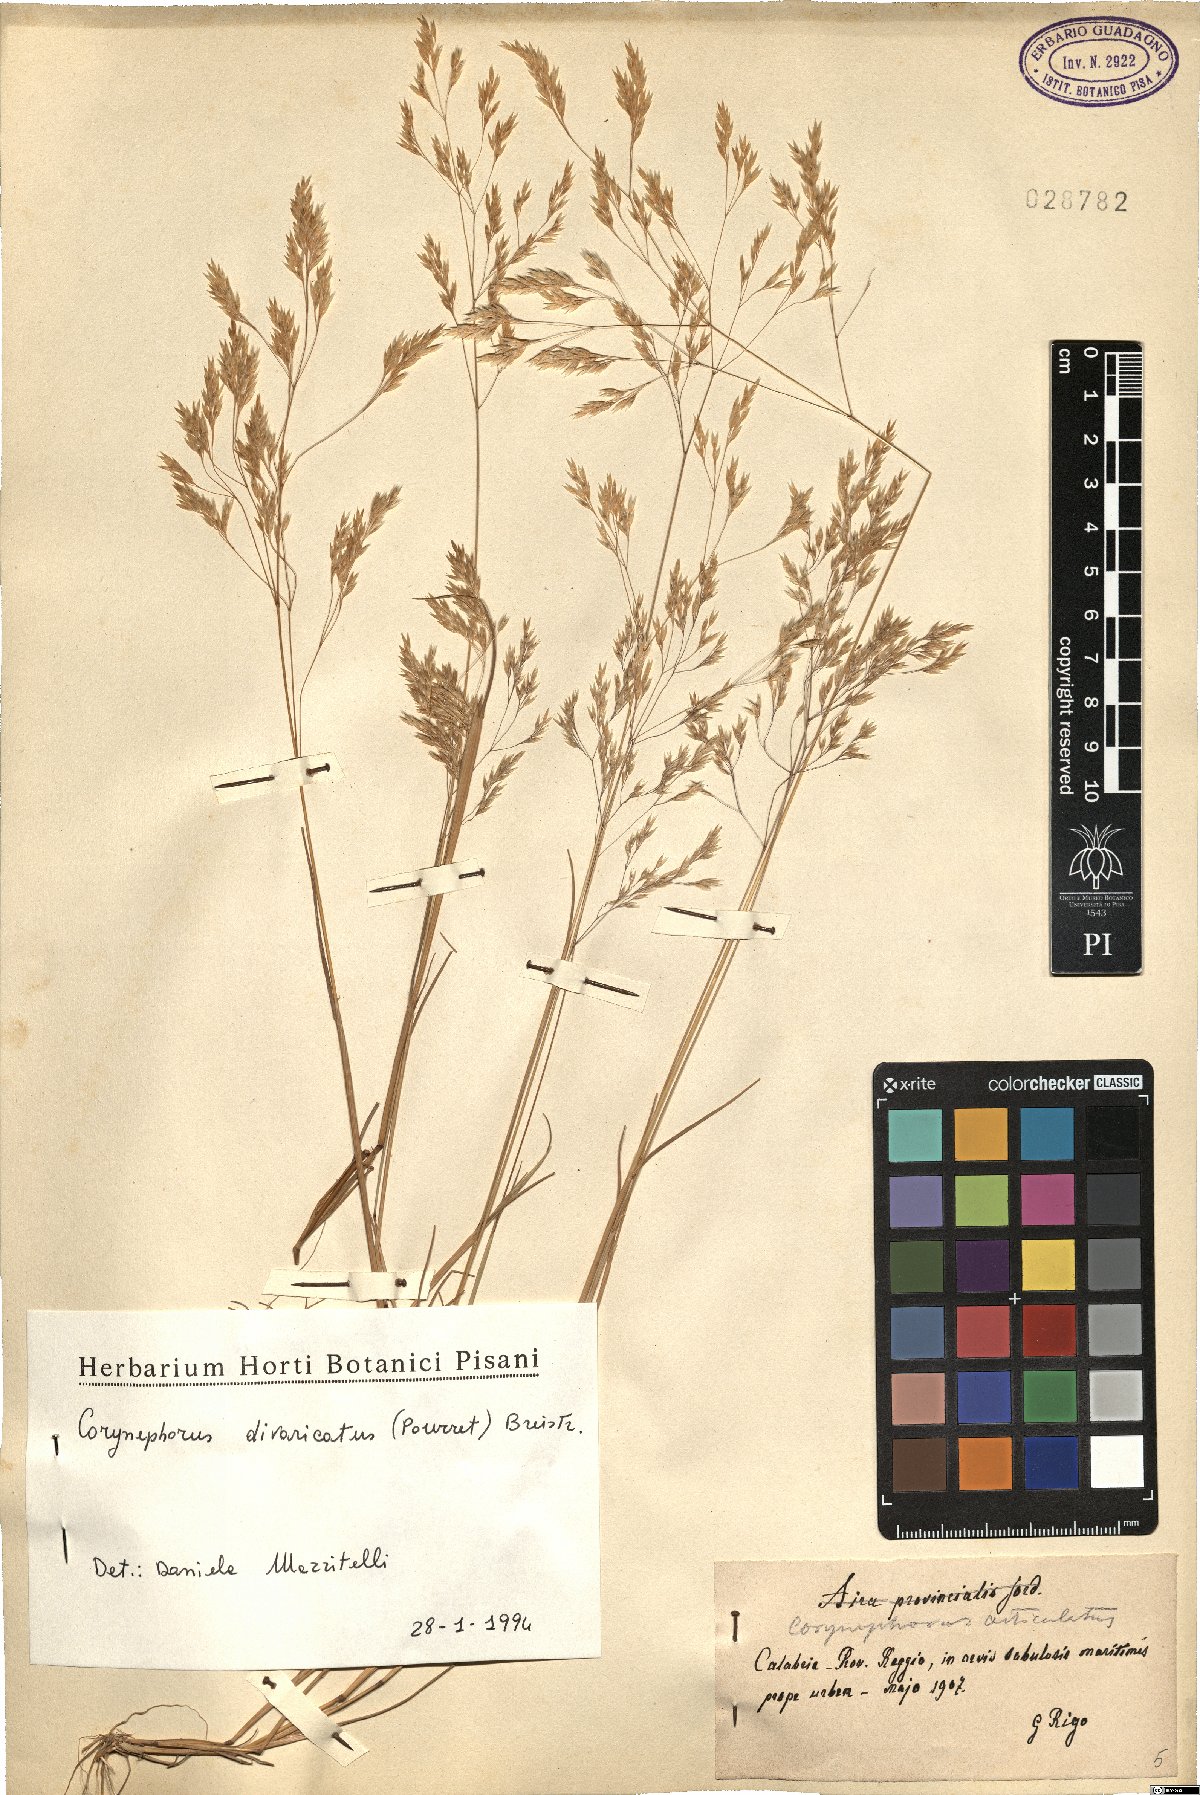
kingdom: Plantae
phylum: Tracheophyta
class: Liliopsida
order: Poales
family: Poaceae
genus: Corynephorus
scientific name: Corynephorus divaricatus
